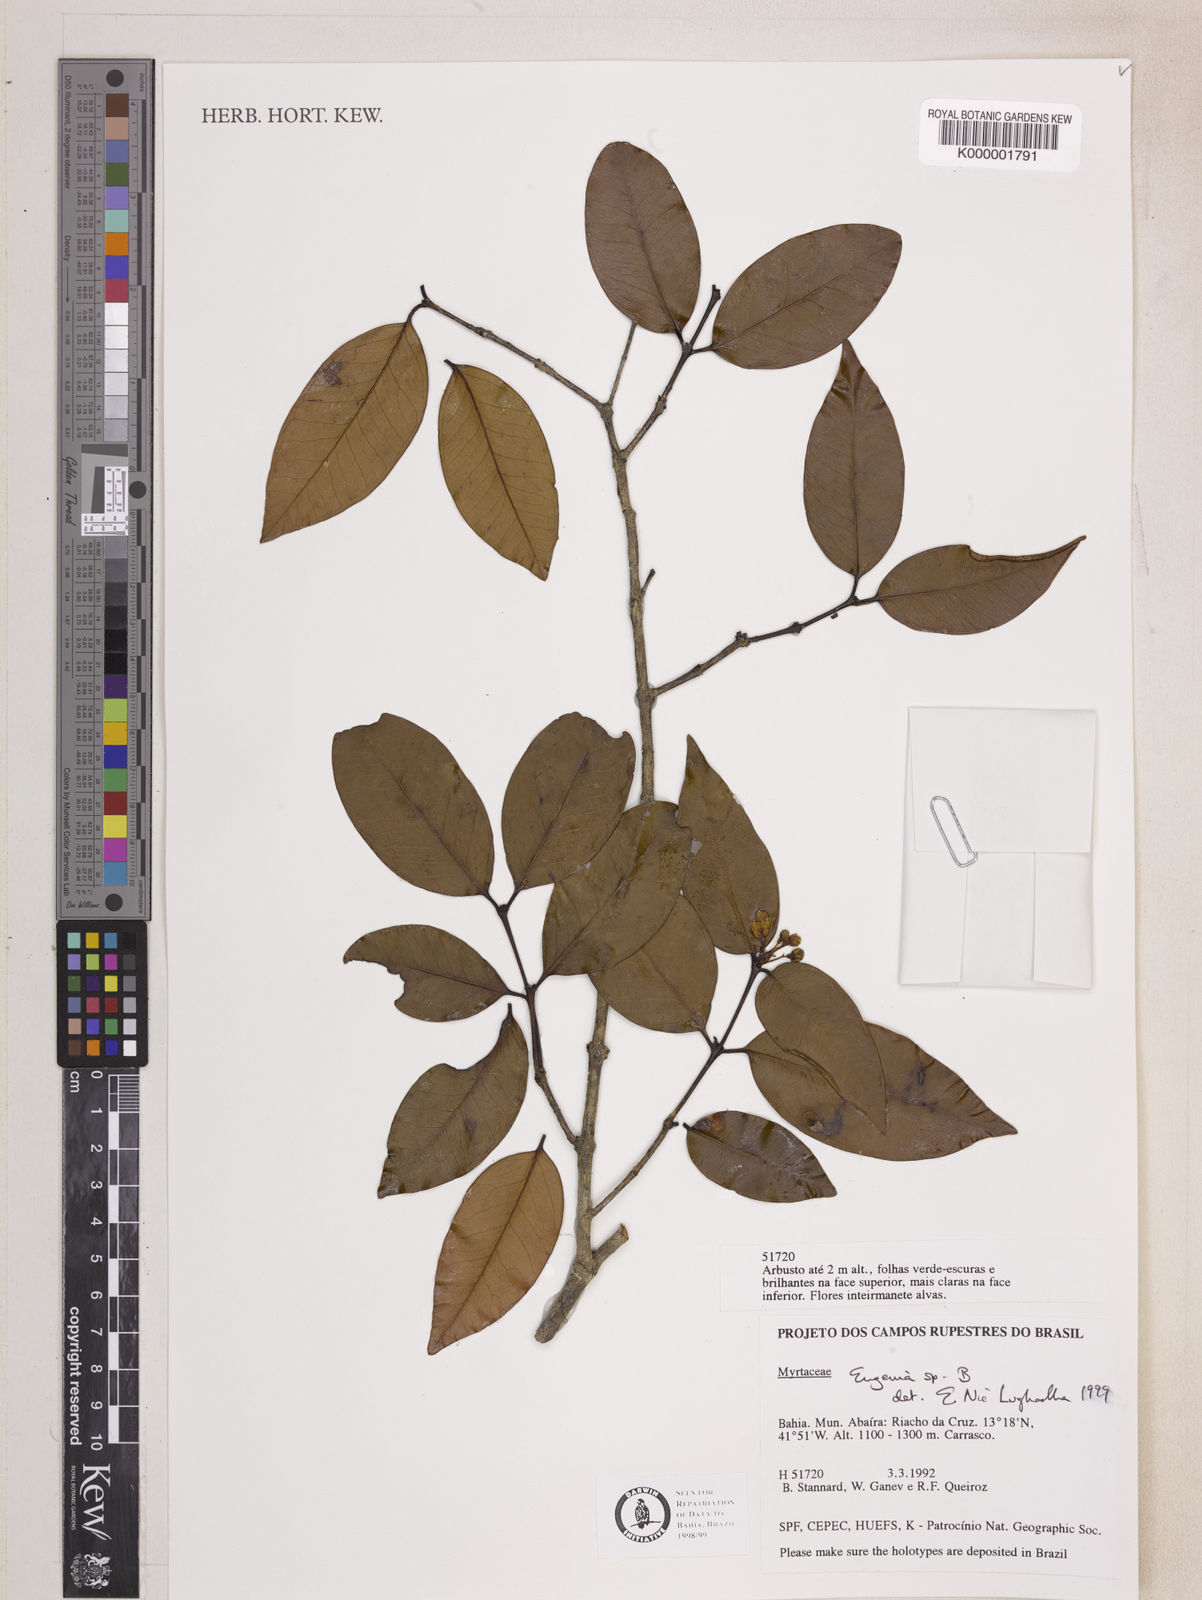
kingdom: Plantae
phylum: Tracheophyta
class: Magnoliopsida
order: Myrtales
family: Myrtaceae
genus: Eugenia
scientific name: Eugenia
